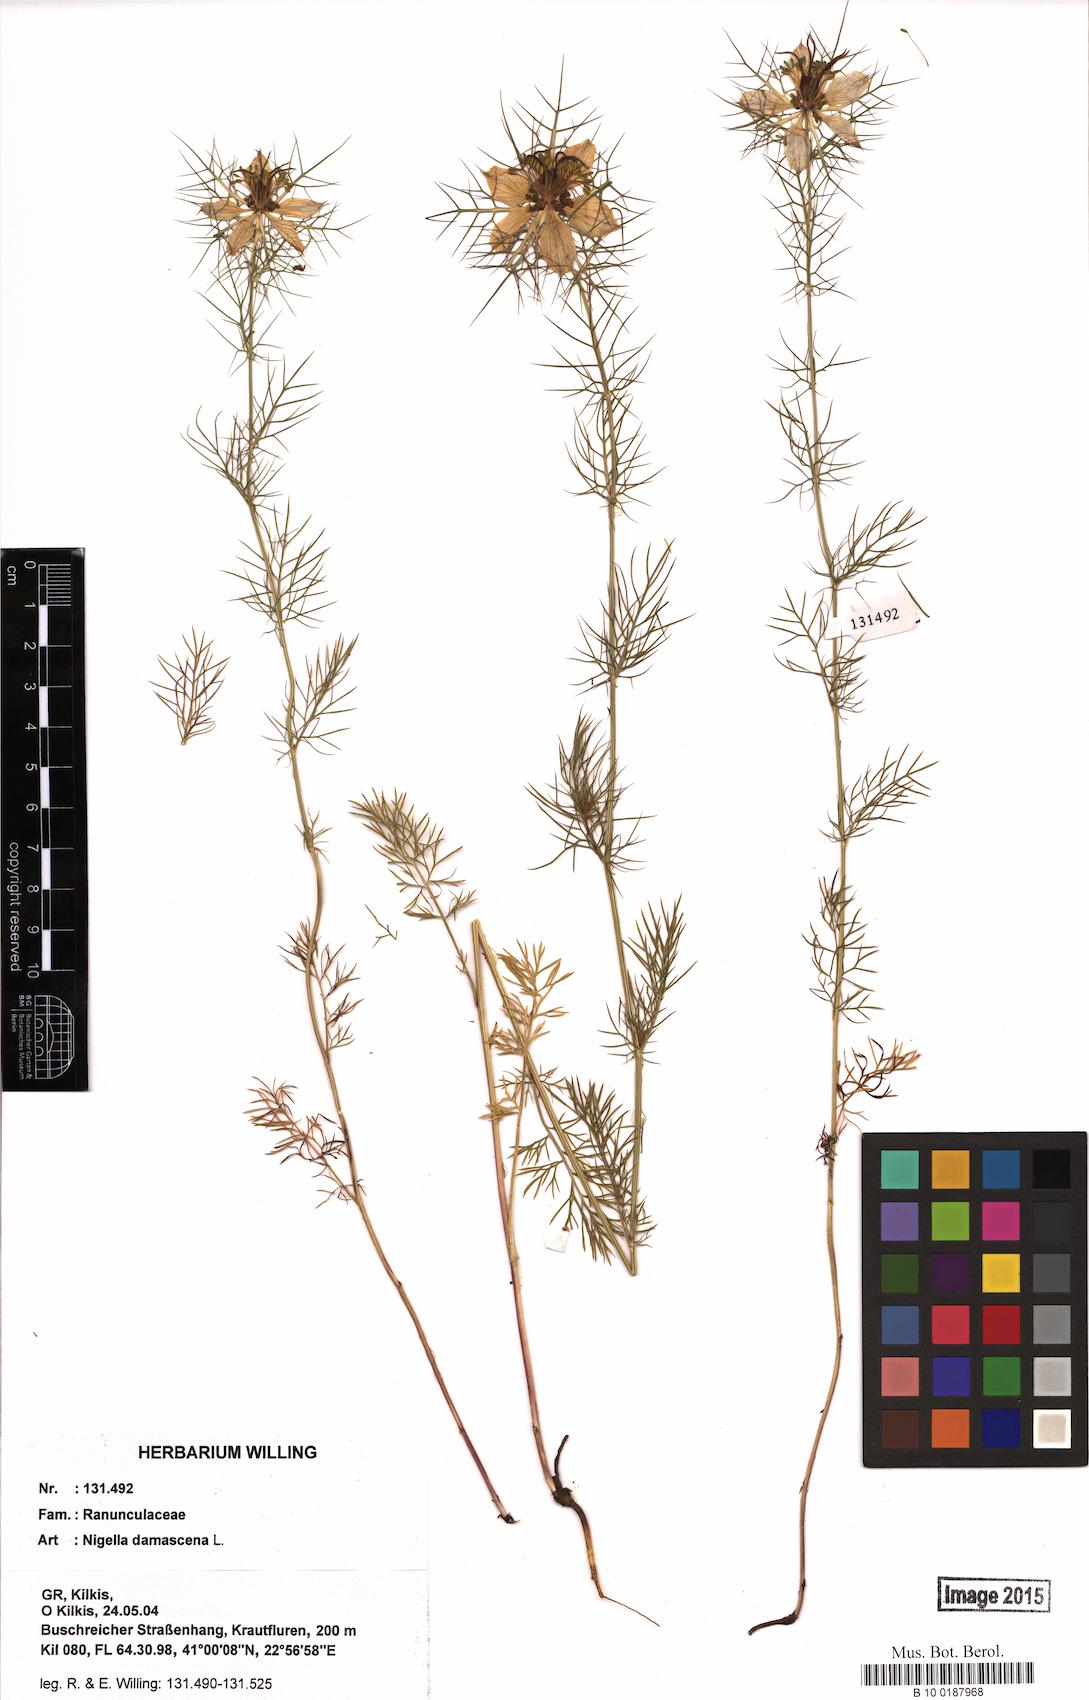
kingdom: Plantae
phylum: Tracheophyta
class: Magnoliopsida
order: Ranunculales
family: Ranunculaceae
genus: Nigella
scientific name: Nigella damascena
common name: Love-in-a-mist
